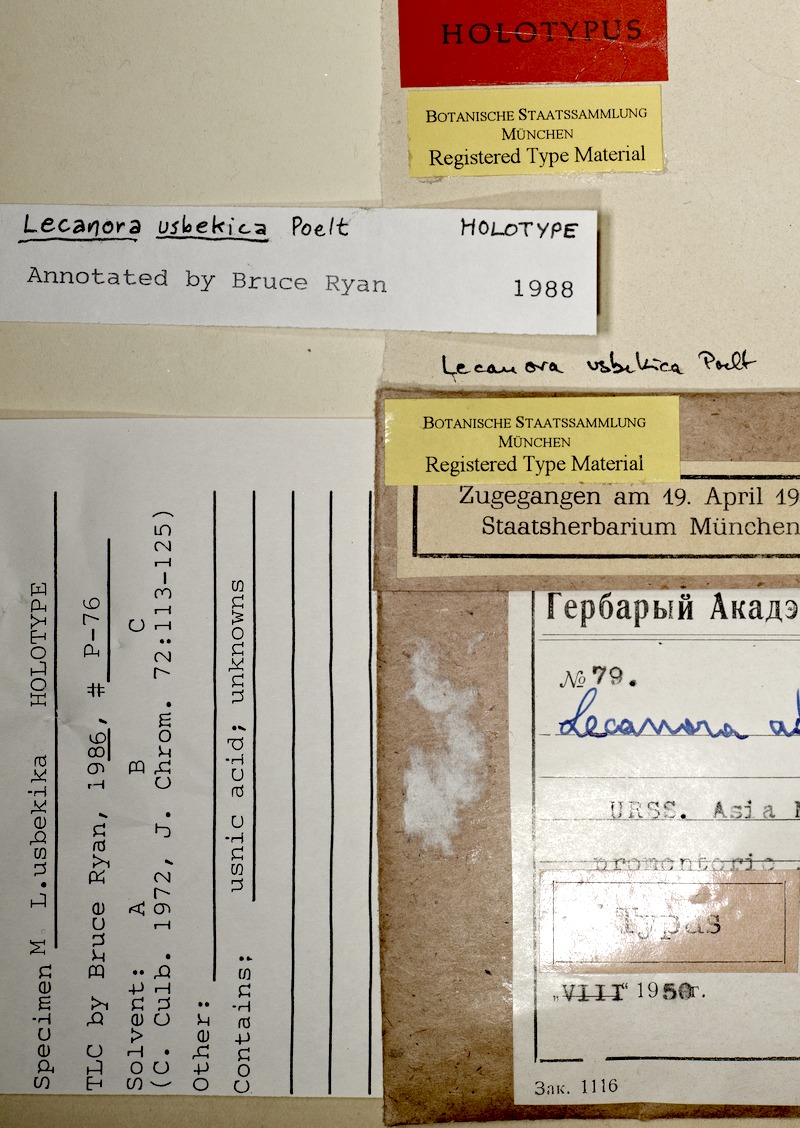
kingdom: Fungi
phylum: Ascomycota
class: Lecanoromycetes
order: Lecanorales
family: Lecanoraceae
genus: Protoparmeliopsis
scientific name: Protoparmeliopsis usbekica
